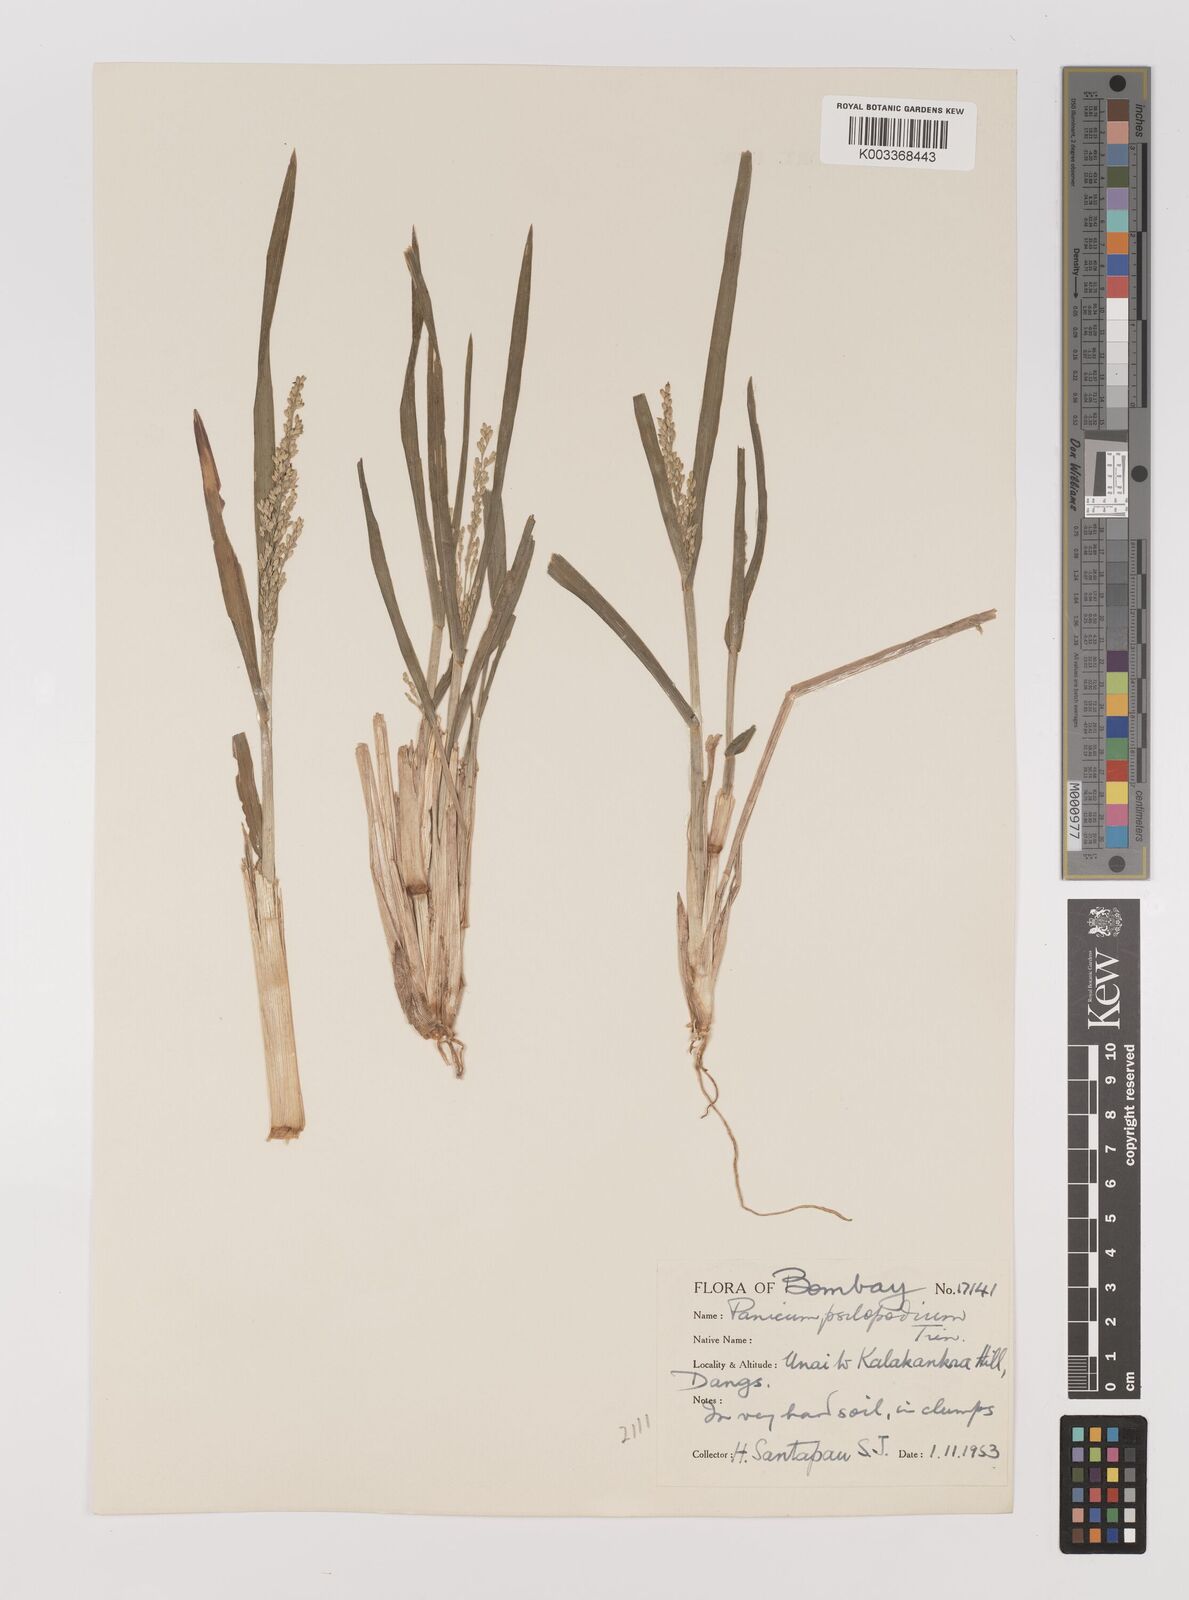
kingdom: Plantae
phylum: Tracheophyta
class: Liliopsida
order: Poales
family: Poaceae
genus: Panicum
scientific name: Panicum sumatrense
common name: Little millet
